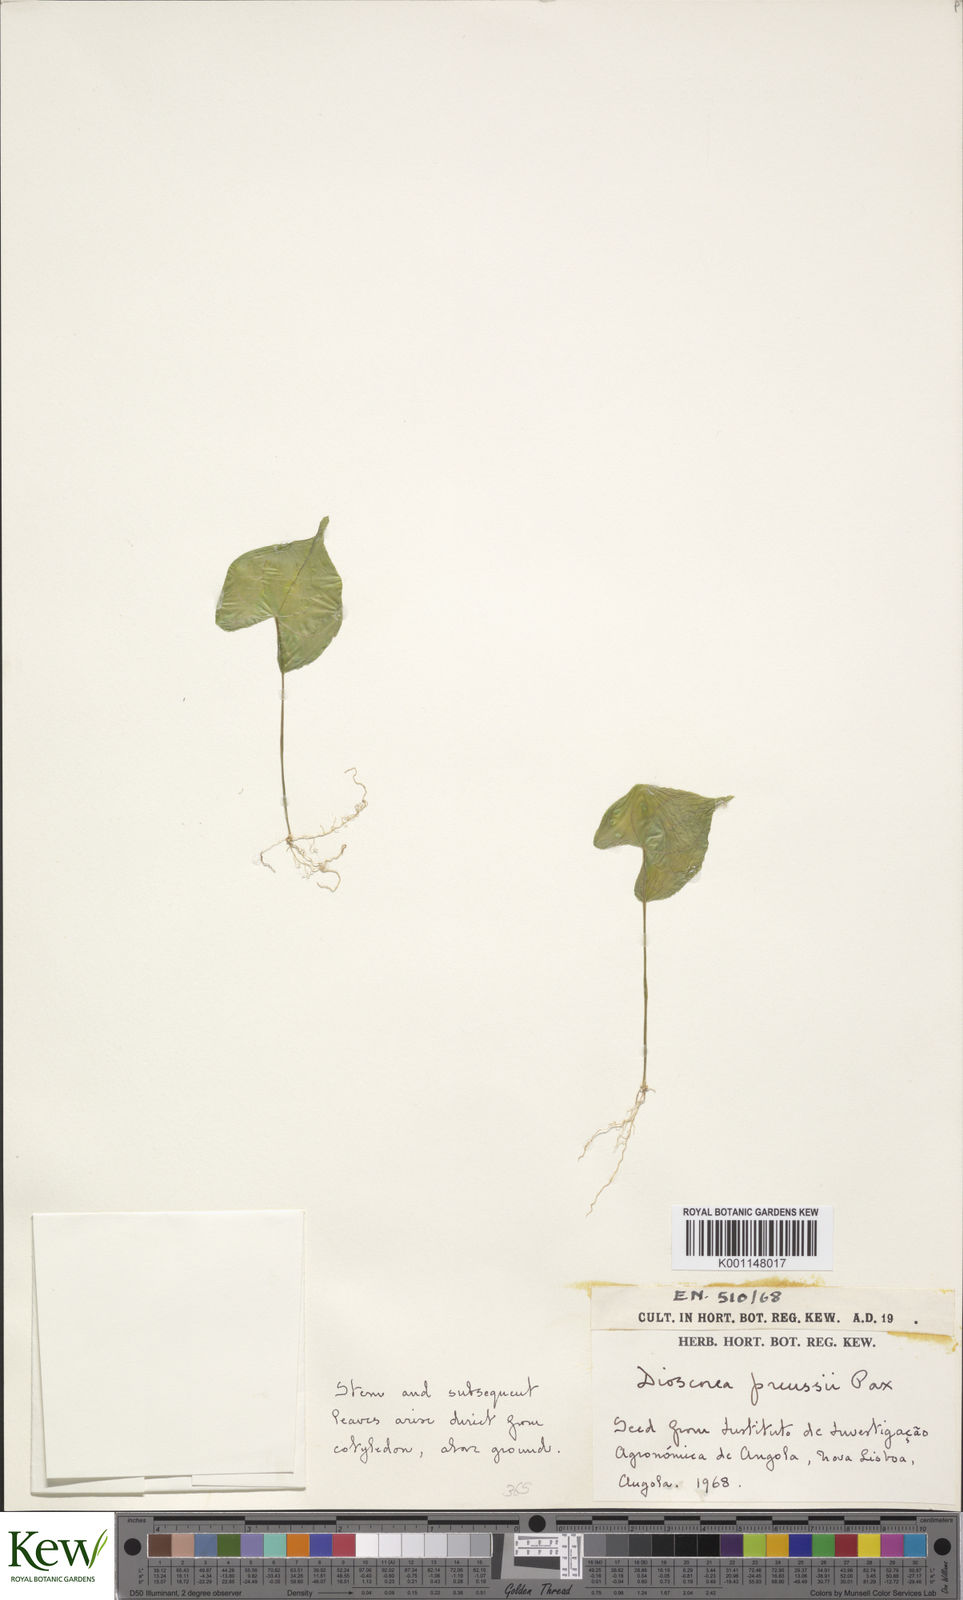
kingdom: Plantae
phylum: Tracheophyta
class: Liliopsida
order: Dioscoreales
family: Dioscoreaceae
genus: Dioscorea
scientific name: Dioscorea preussii
